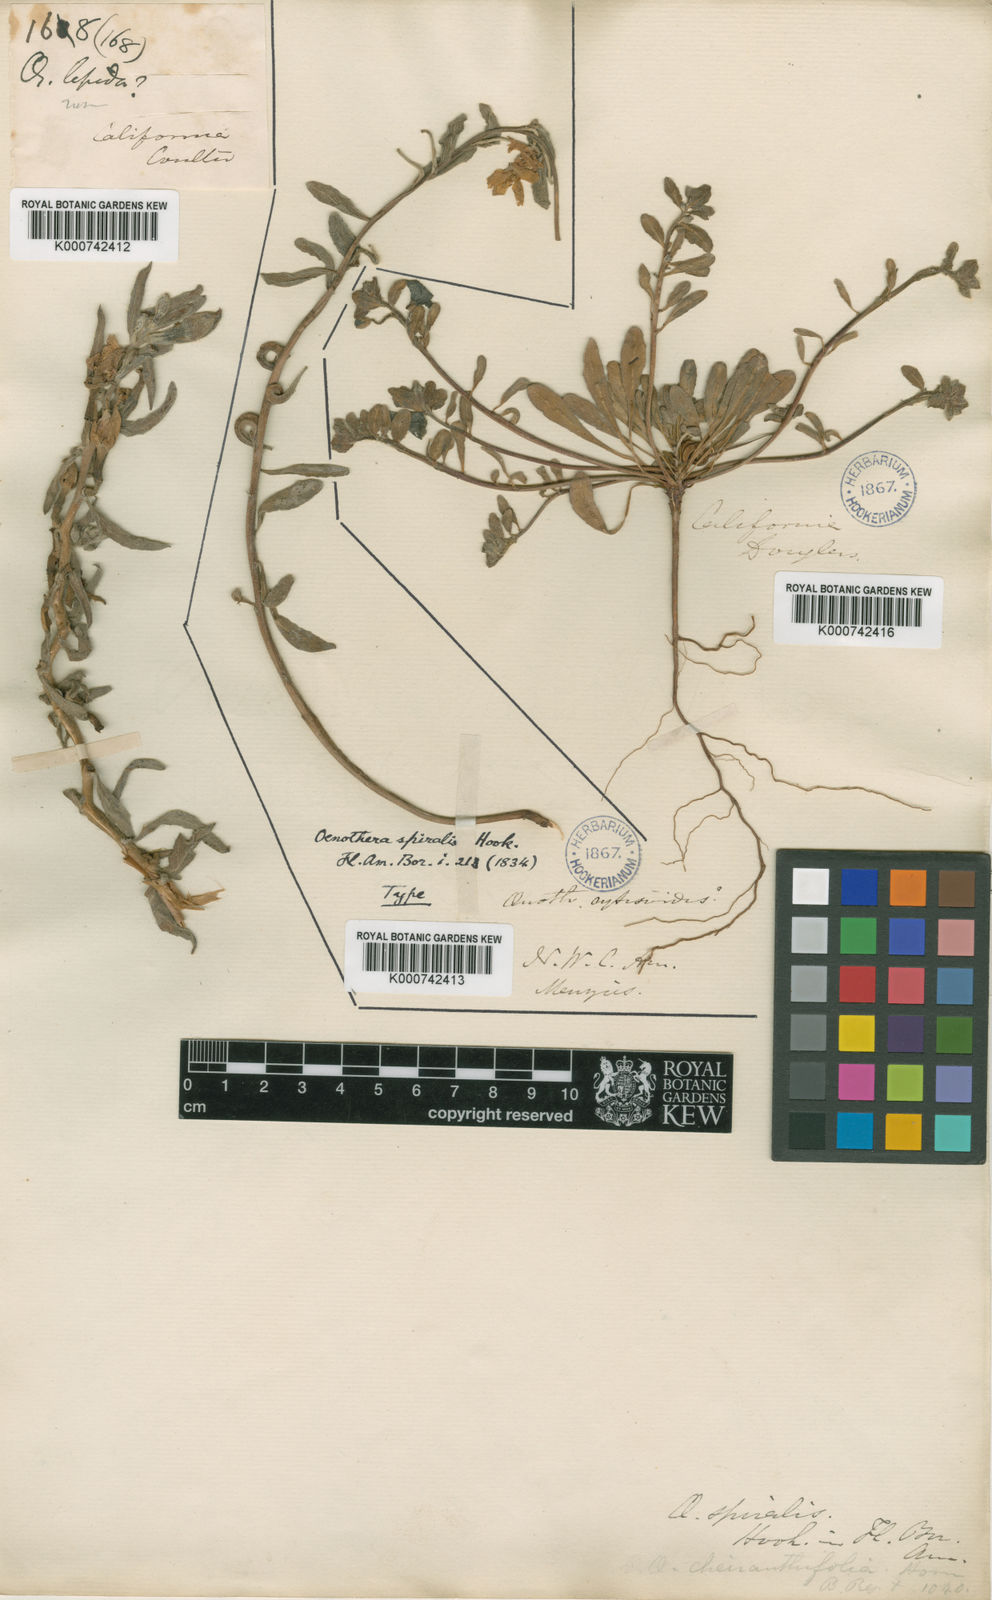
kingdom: Plantae
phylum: Tracheophyta
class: Magnoliopsida
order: Myrtales
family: Onagraceae
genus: Camissoniopsis
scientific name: Camissoniopsis cheiranthifolia
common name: Beach suncup
